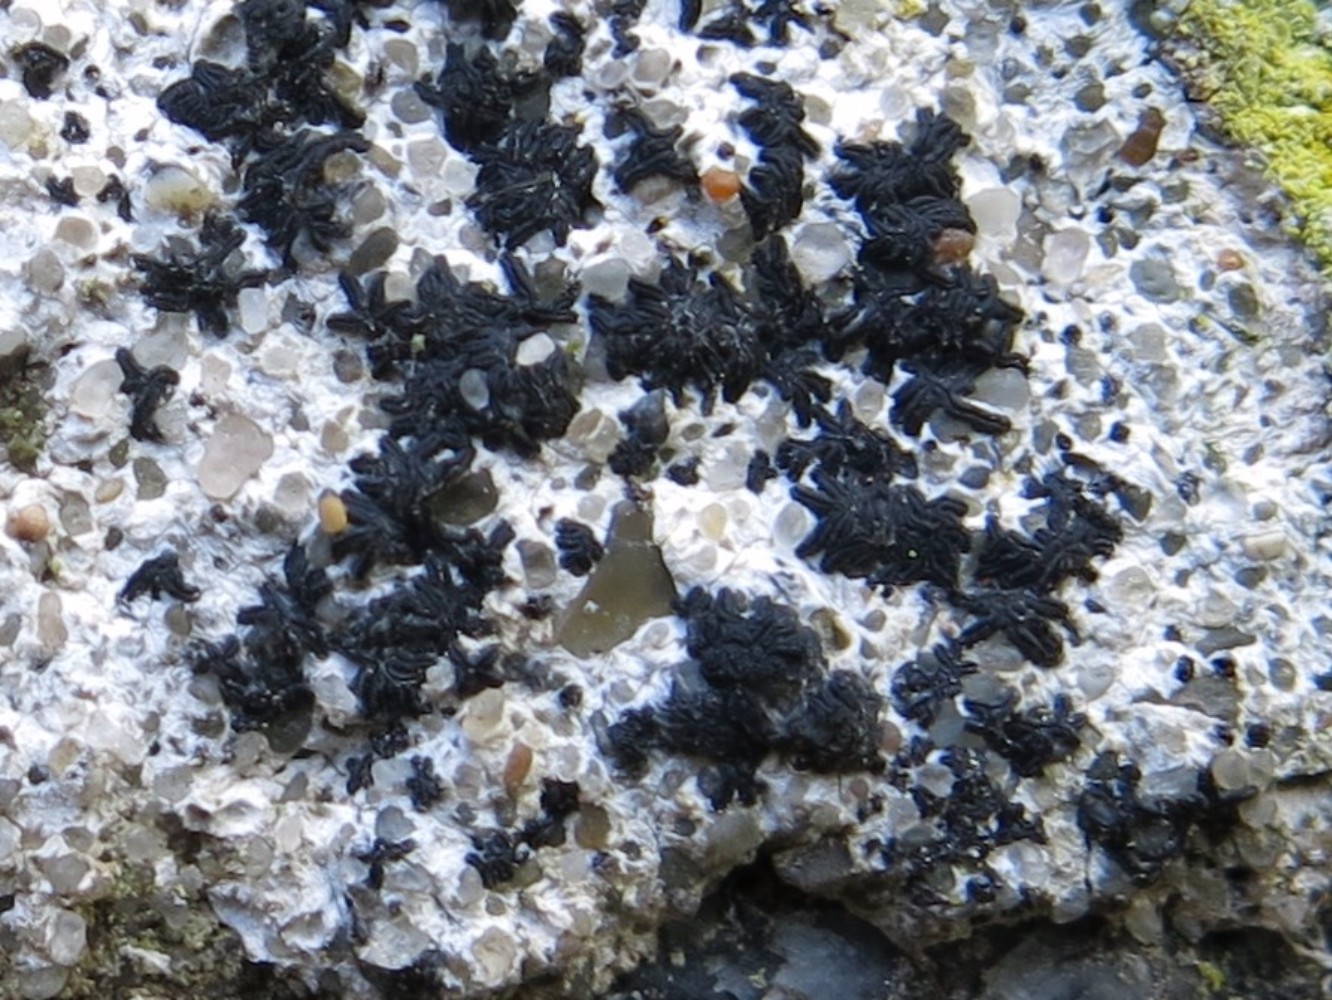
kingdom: Fungi
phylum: Ascomycota
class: Arthoniomycetes
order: Arthoniales
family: Arthoniaceae
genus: Arthonia
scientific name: Arthonia calcarea
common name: kalk-bogstavlav
